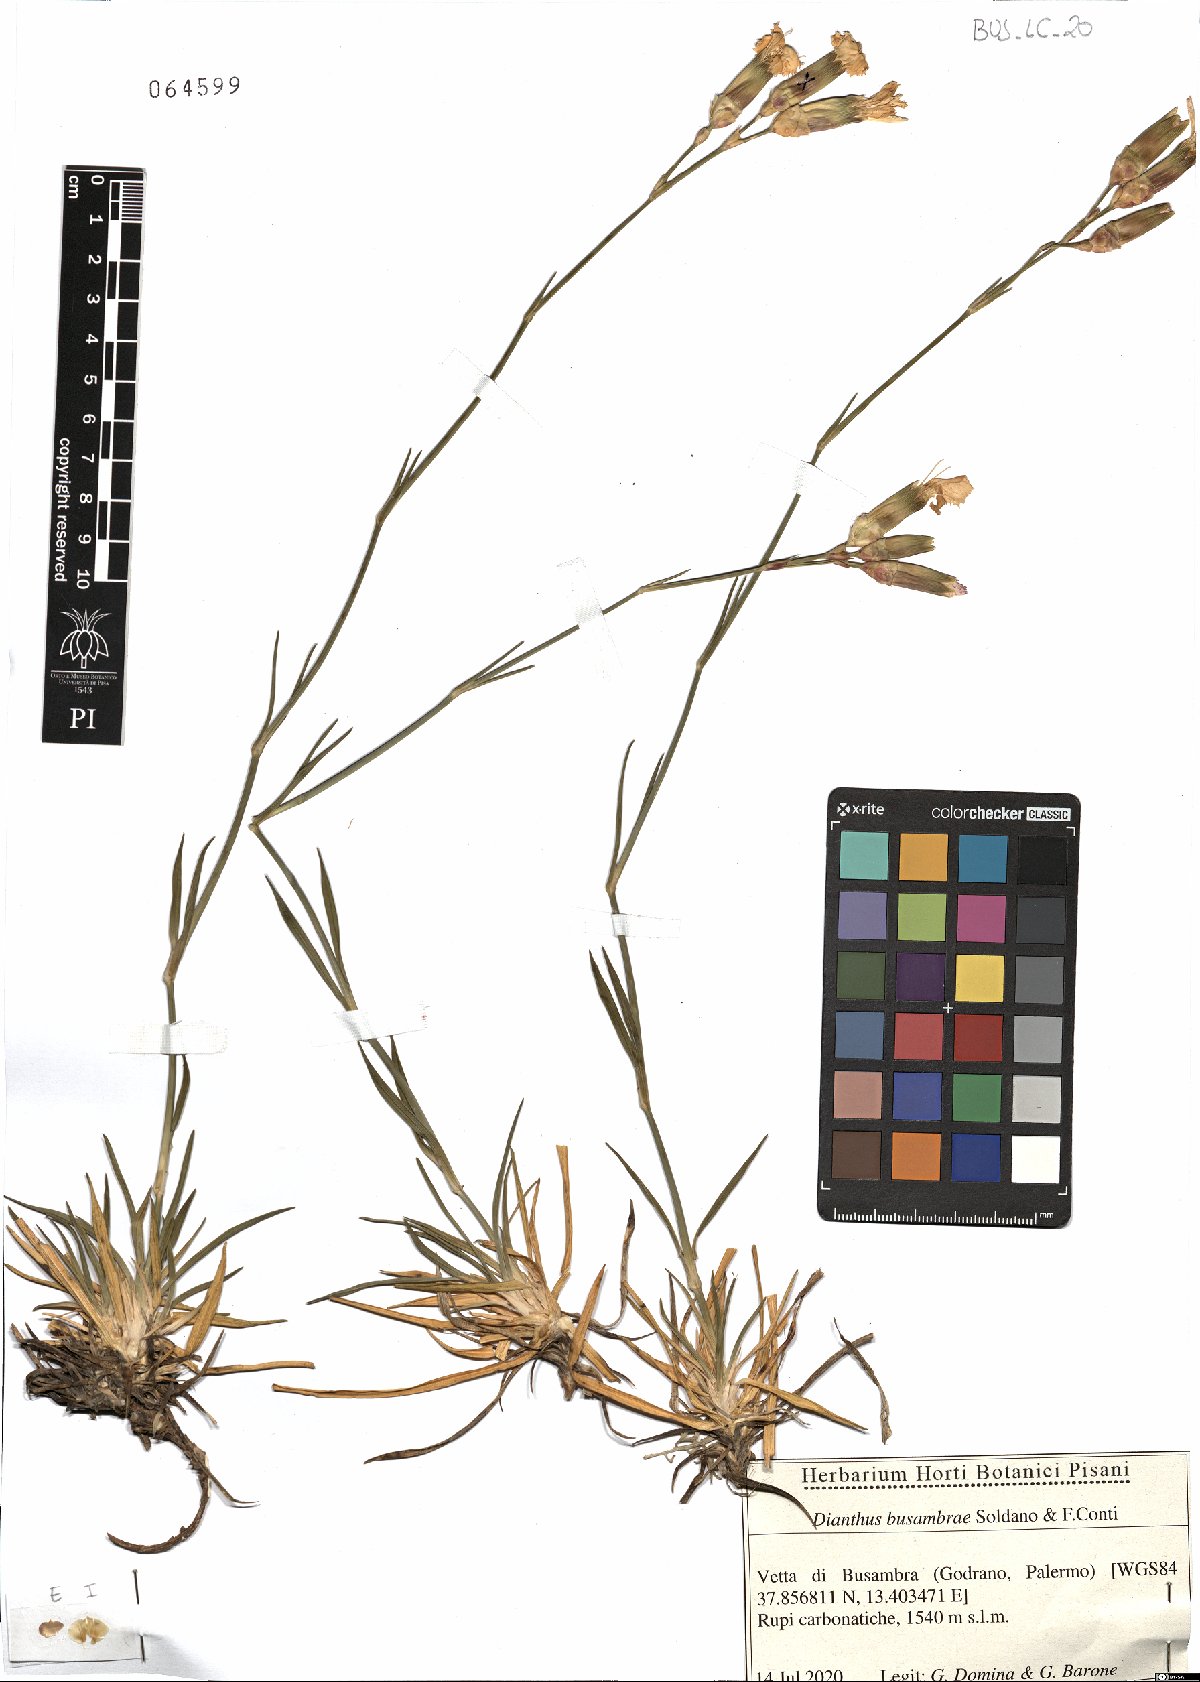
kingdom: Plantae
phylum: Tracheophyta
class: Magnoliopsida
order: Caryophyllales
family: Caryophyllaceae
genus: Dianthus
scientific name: Dianthus busambrae
